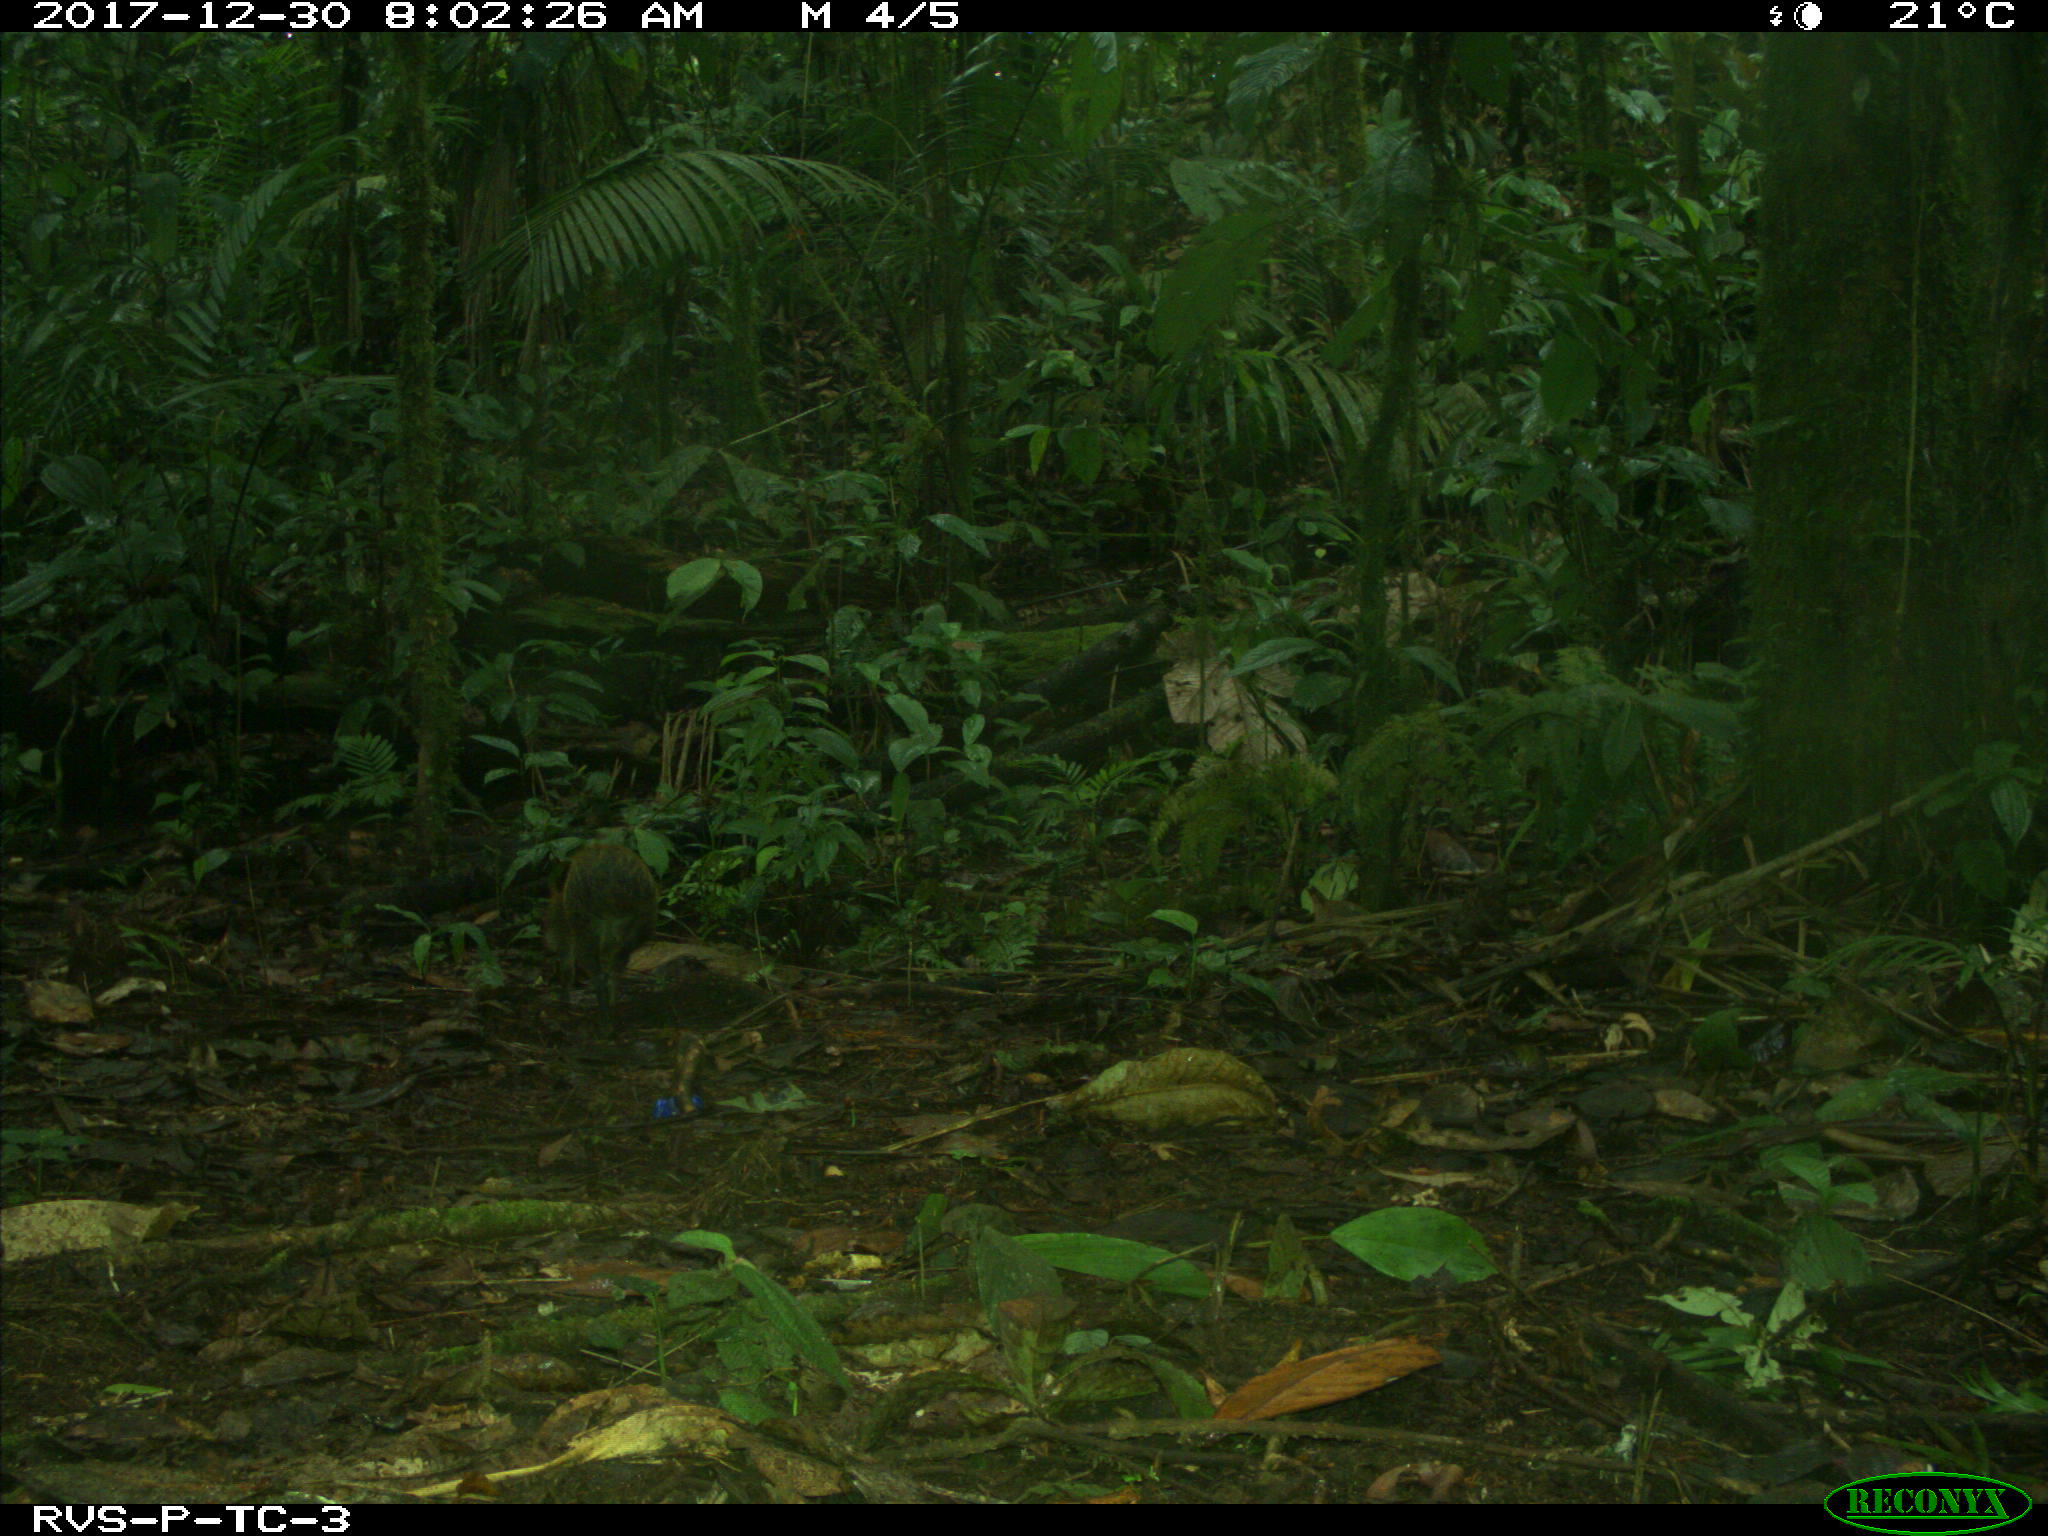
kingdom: Animalia
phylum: Chordata
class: Mammalia
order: Rodentia
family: Dasyproctidae
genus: Dasyprocta
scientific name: Dasyprocta punctata
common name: Central american agouti
